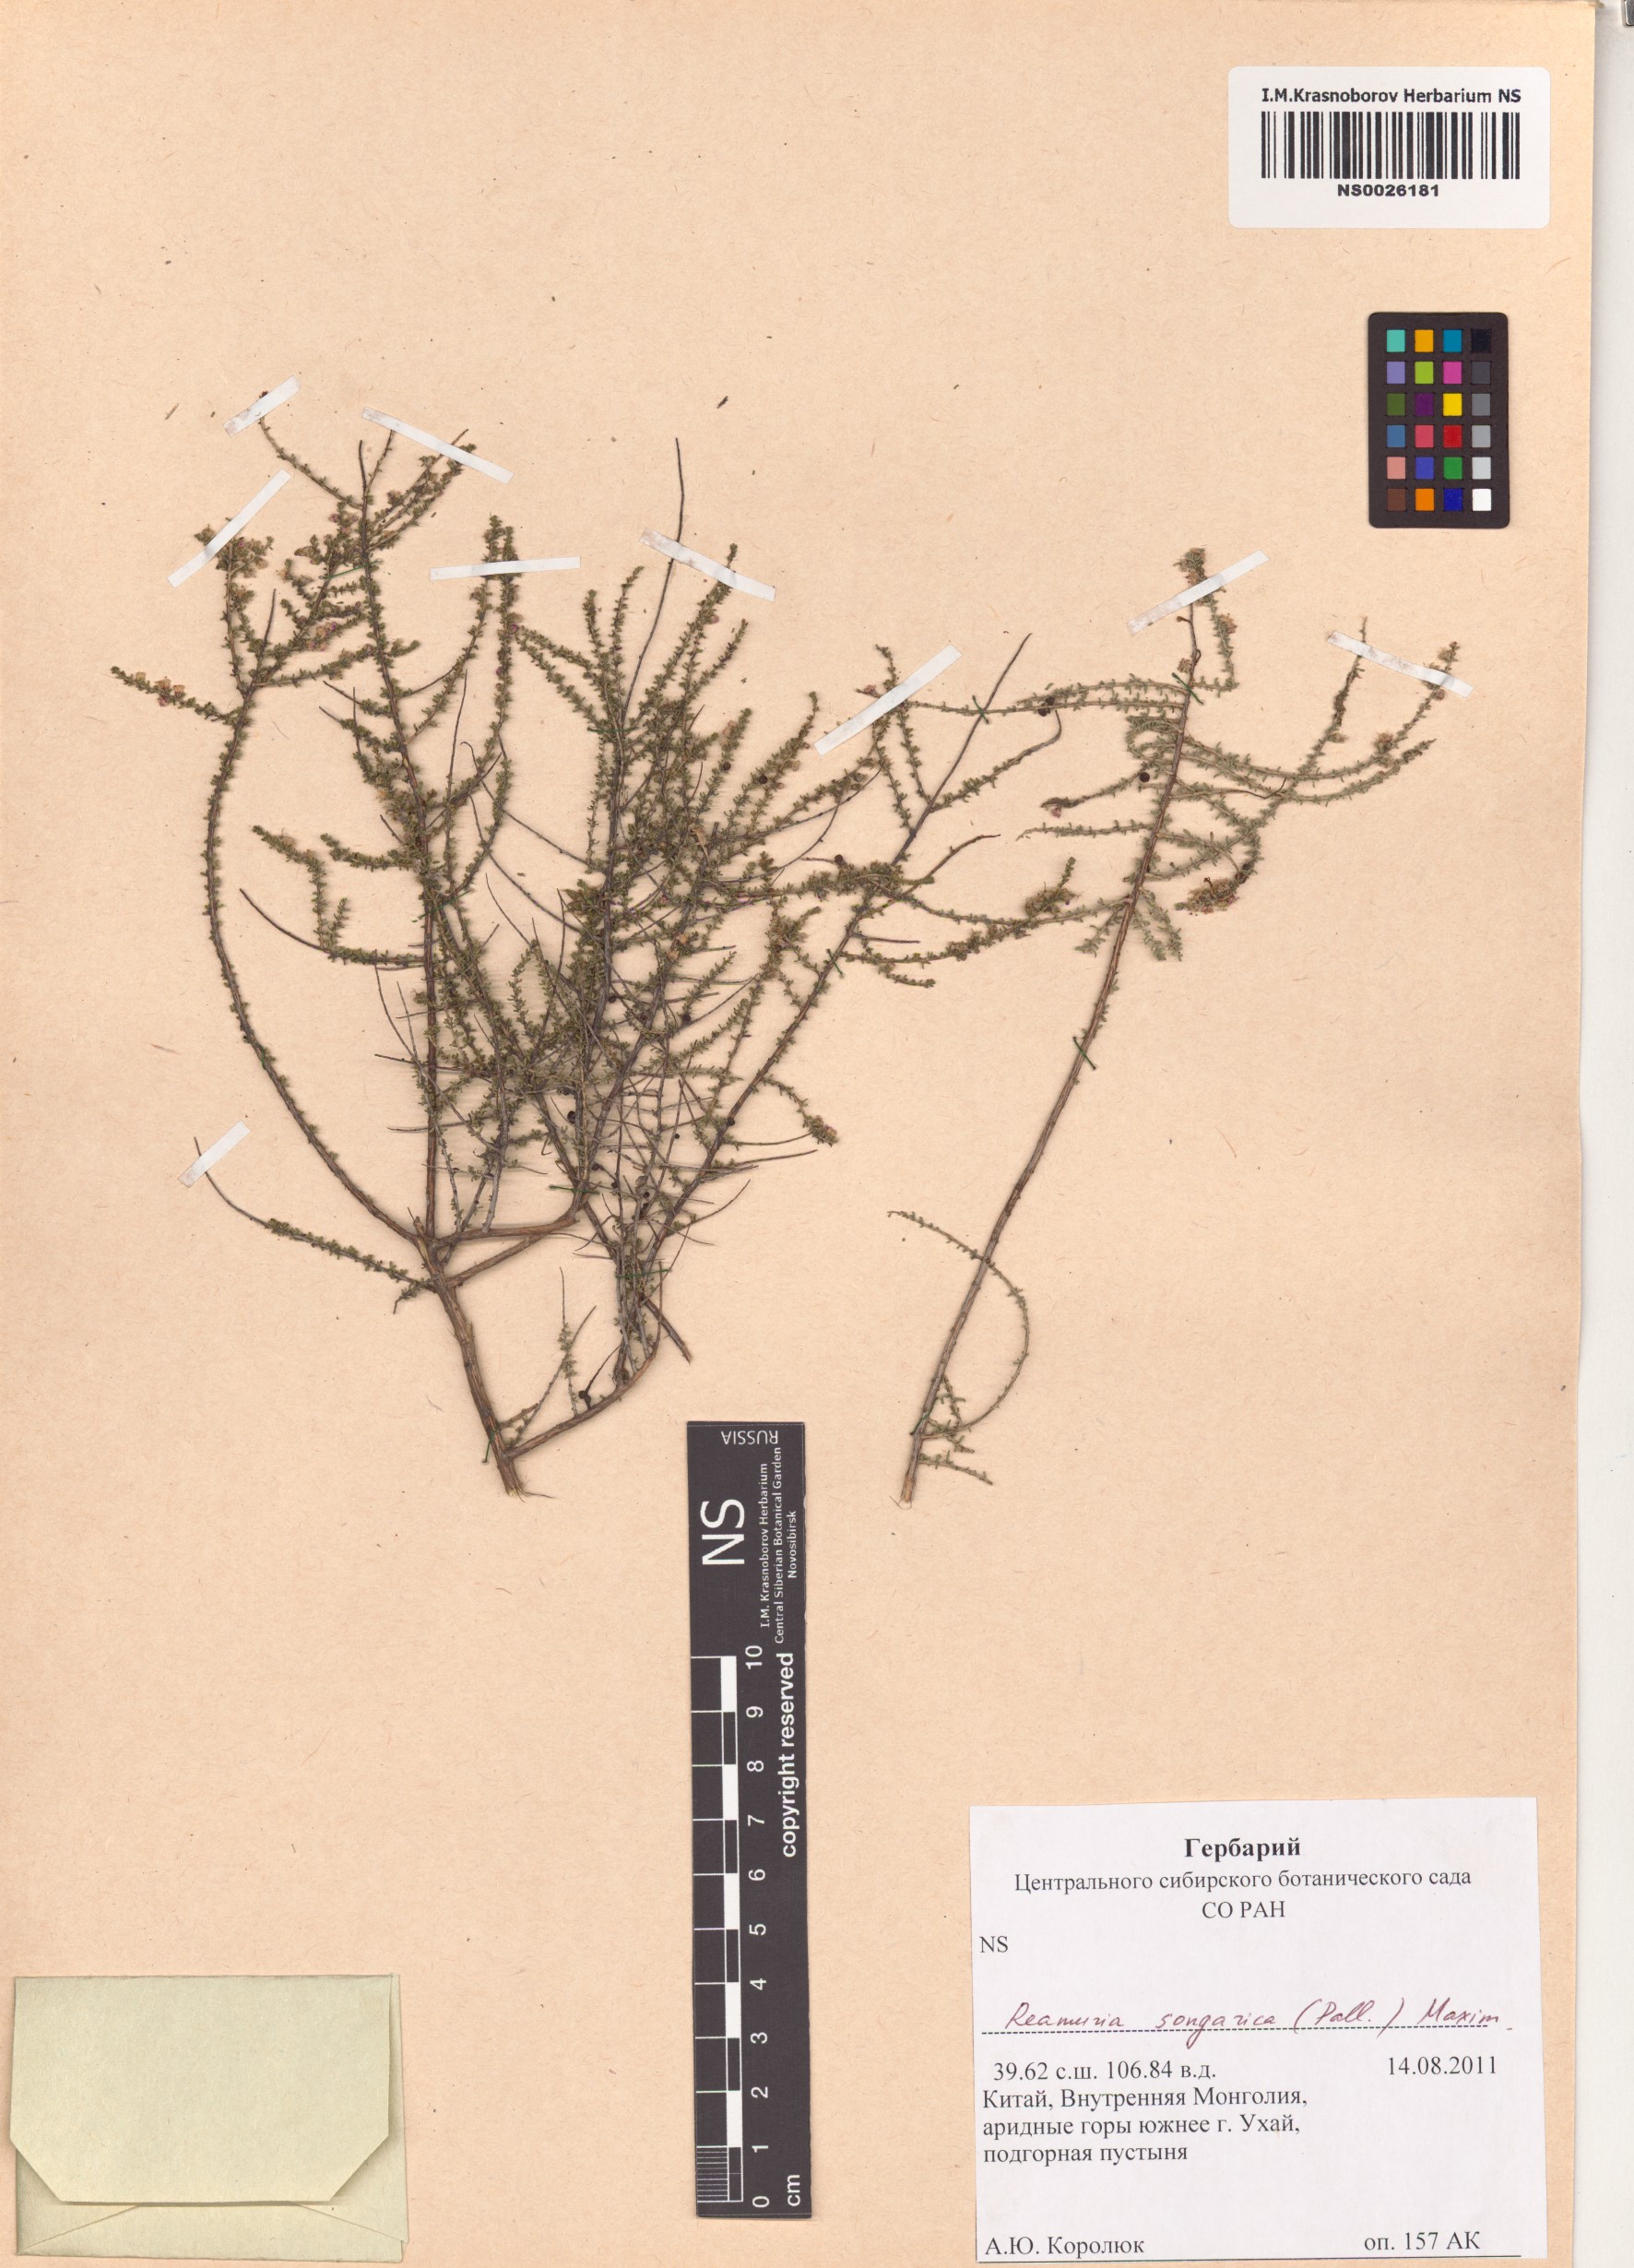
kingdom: Plantae
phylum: Tracheophyta
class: Magnoliopsida
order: Caryophyllales
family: Tamaricaceae
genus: Reaumuria
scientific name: Reaumuria songarica
